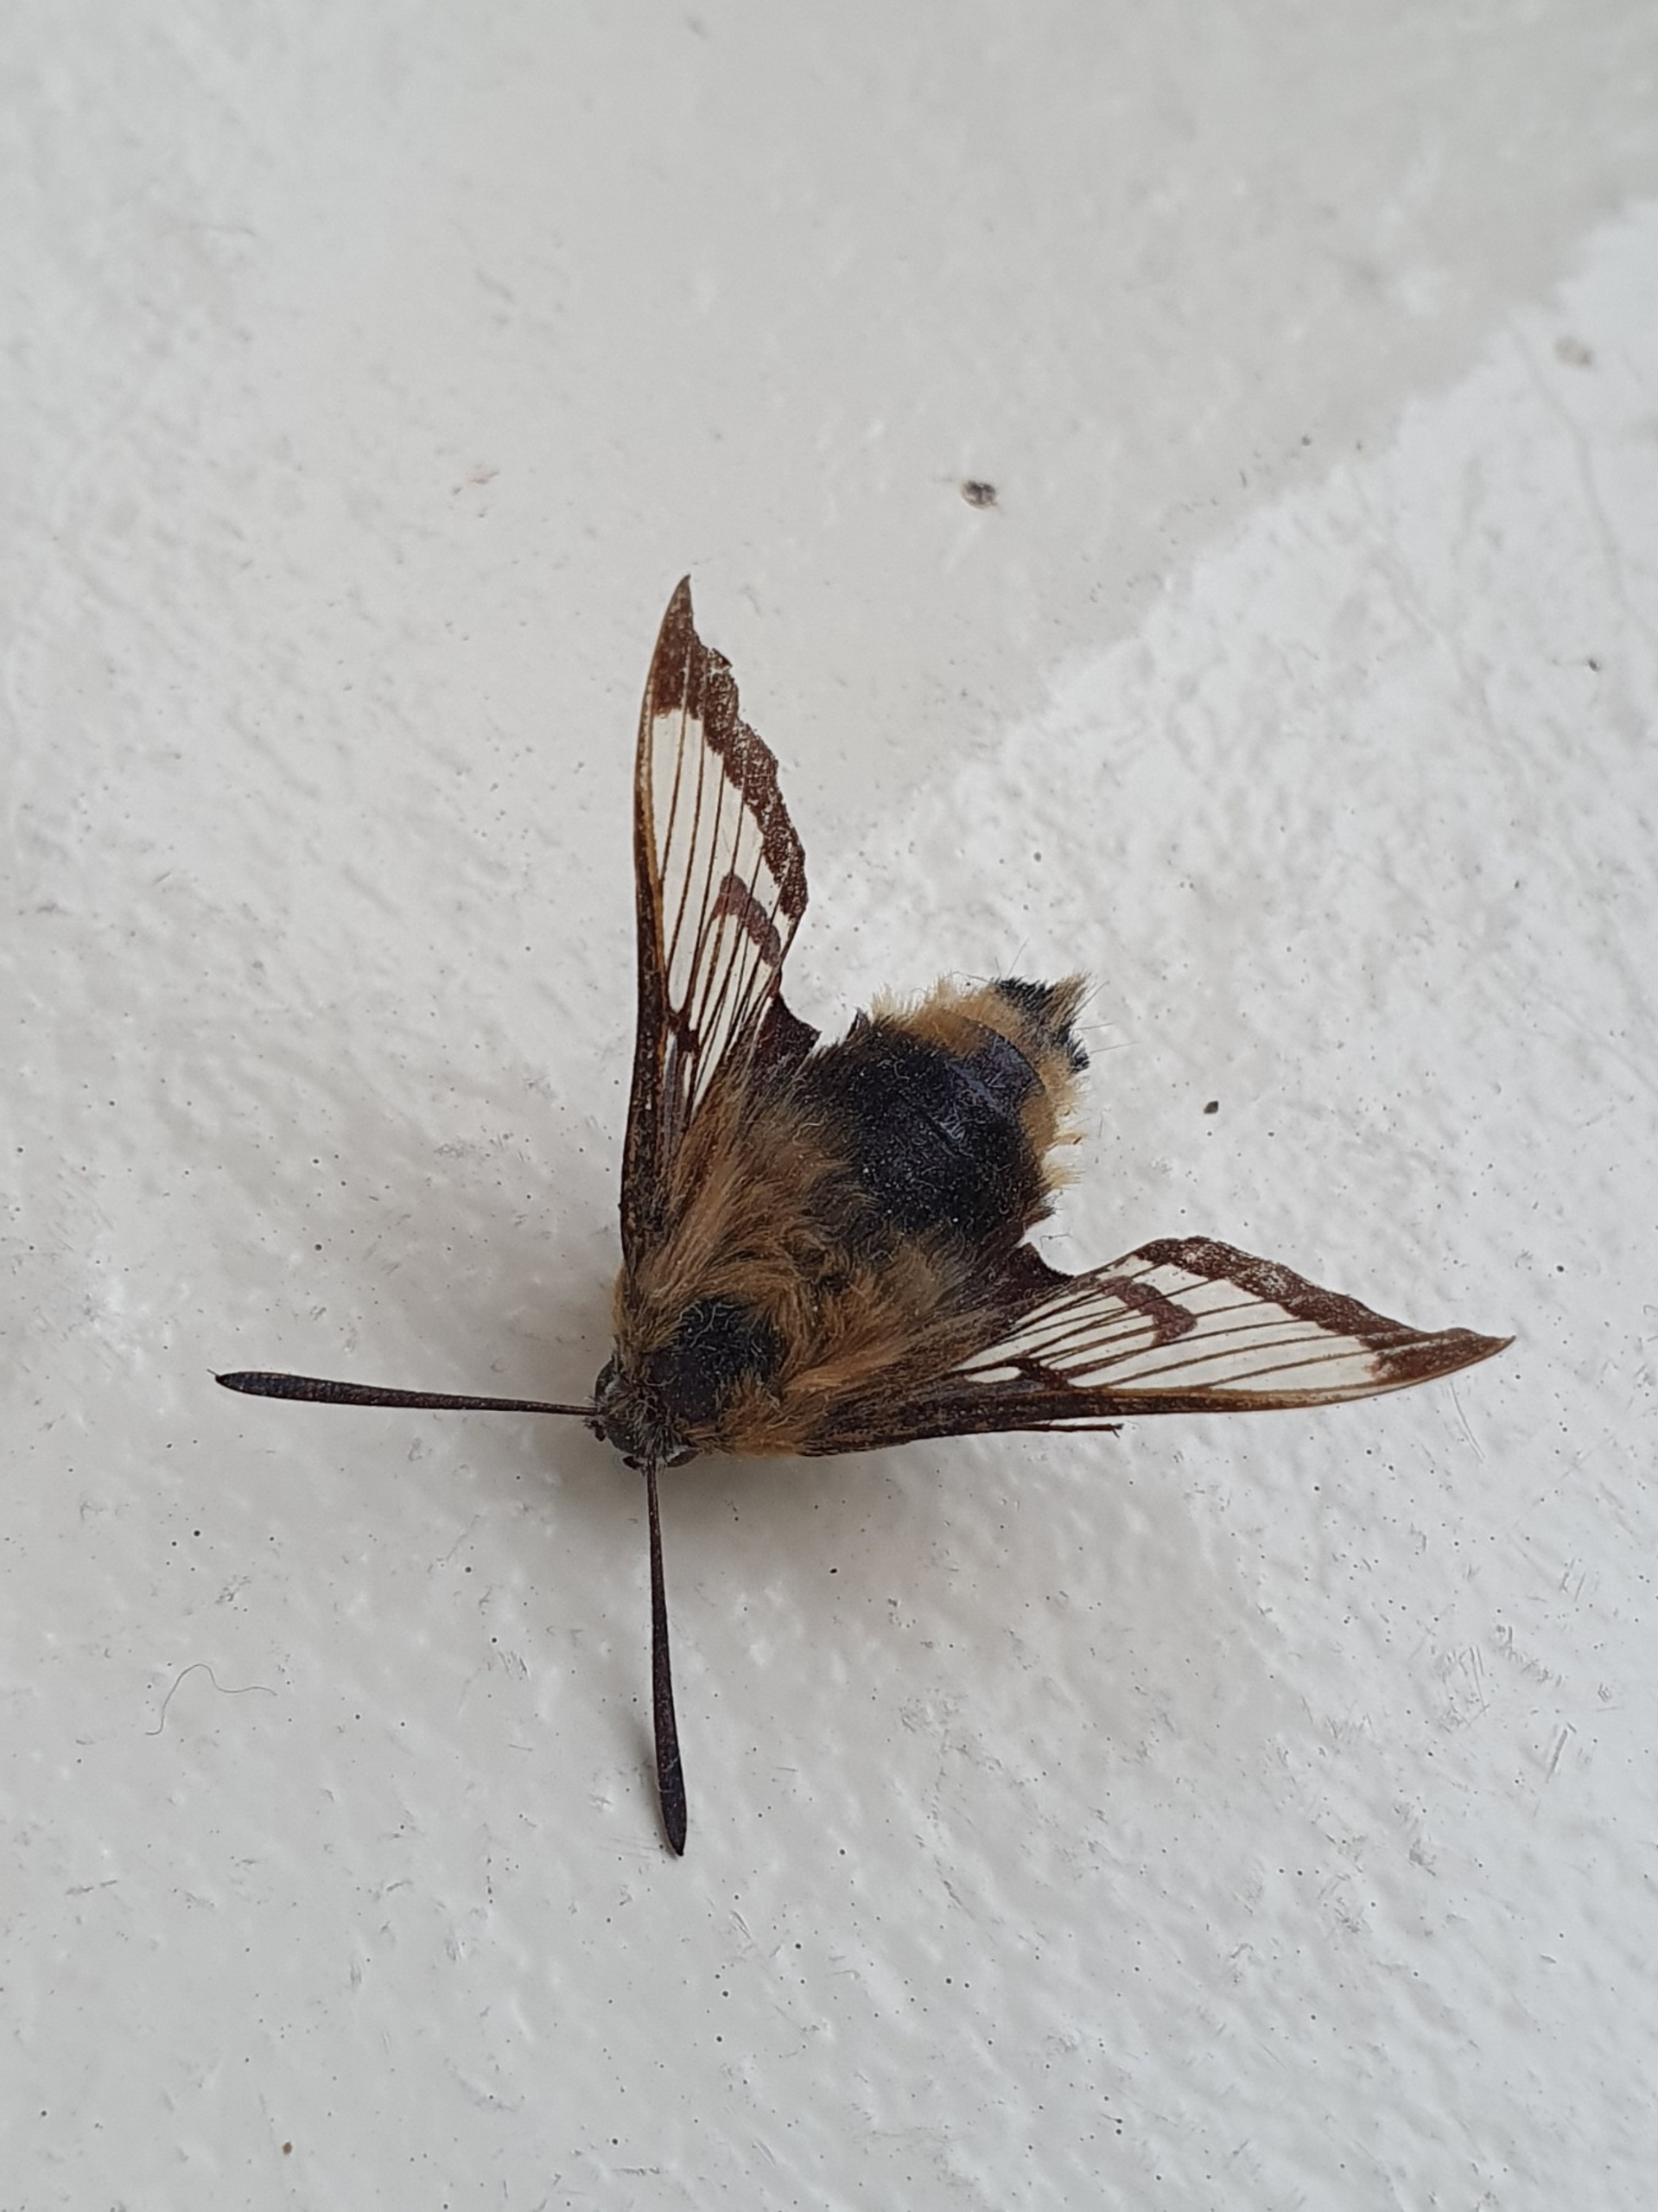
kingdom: Animalia
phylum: Arthropoda
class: Insecta
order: Lepidoptera
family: Sphingidae
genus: Hemaris
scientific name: Hemaris fuciformis
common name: Bredrandet humlebisværmer
